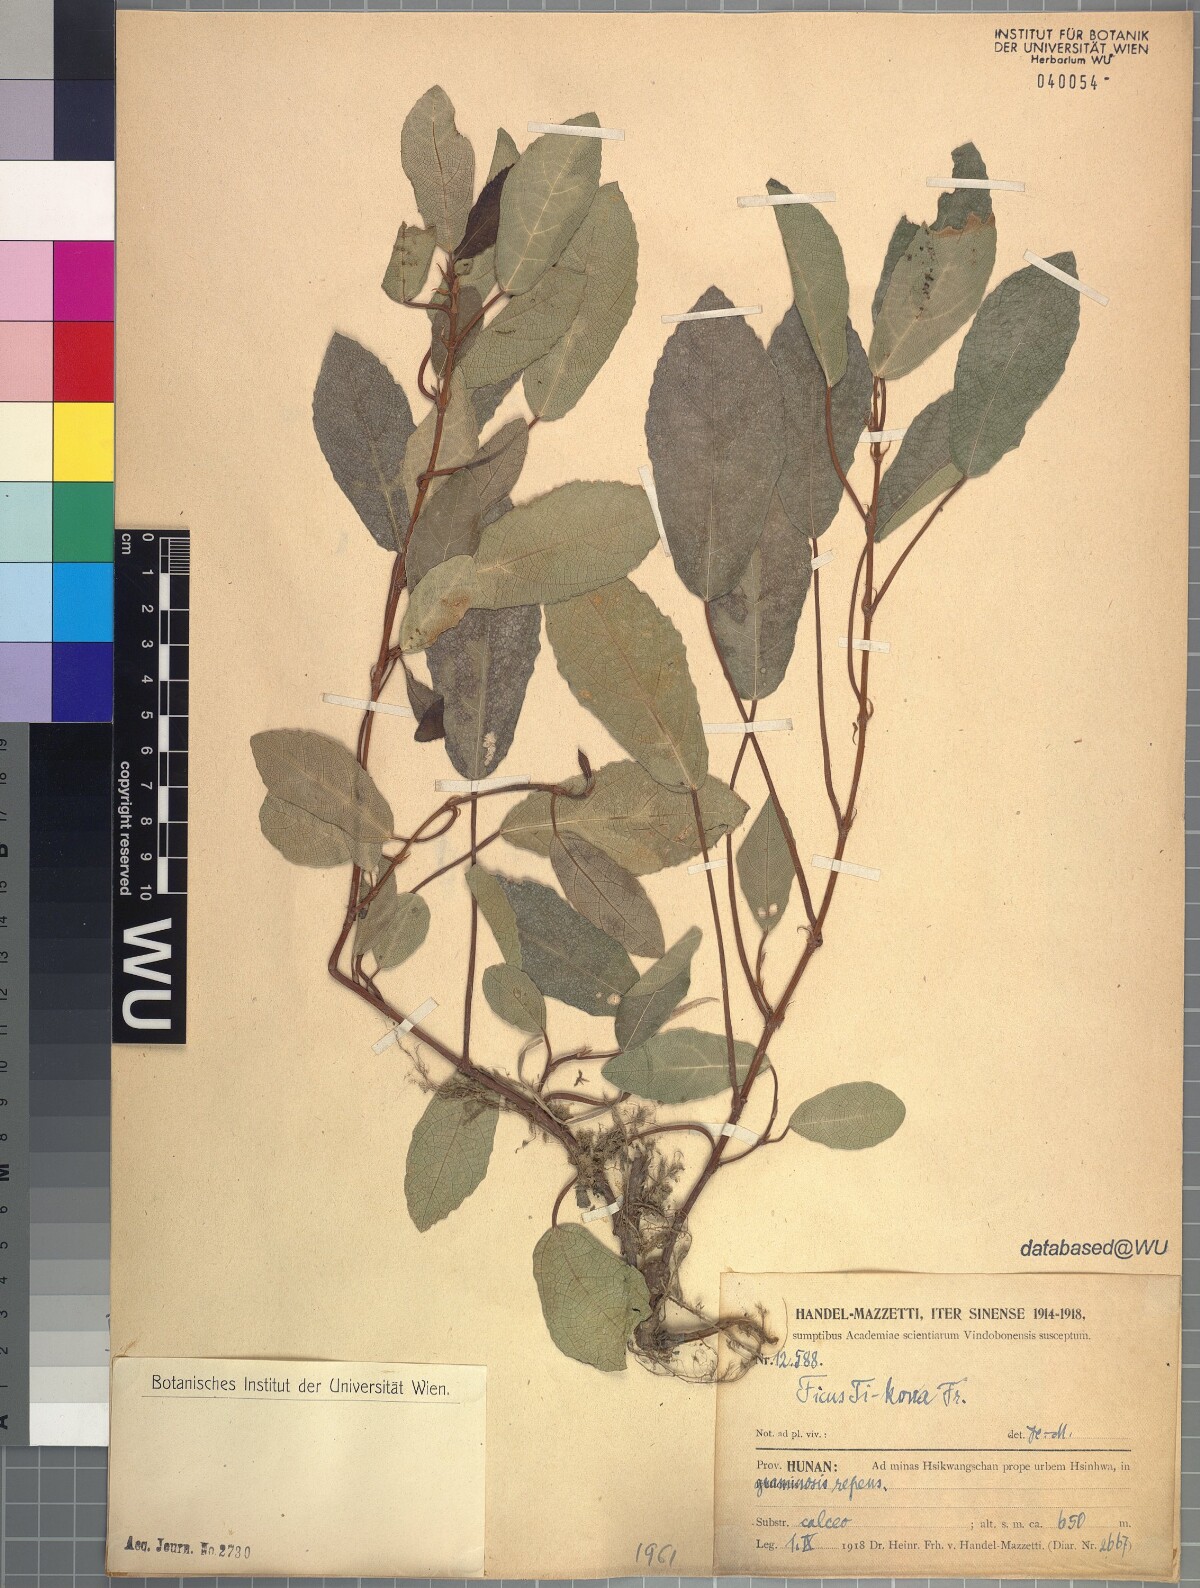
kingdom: Plantae
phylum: Tracheophyta
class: Magnoliopsida
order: Rosales
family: Moraceae
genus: Ficus
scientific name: Ficus tikoua
